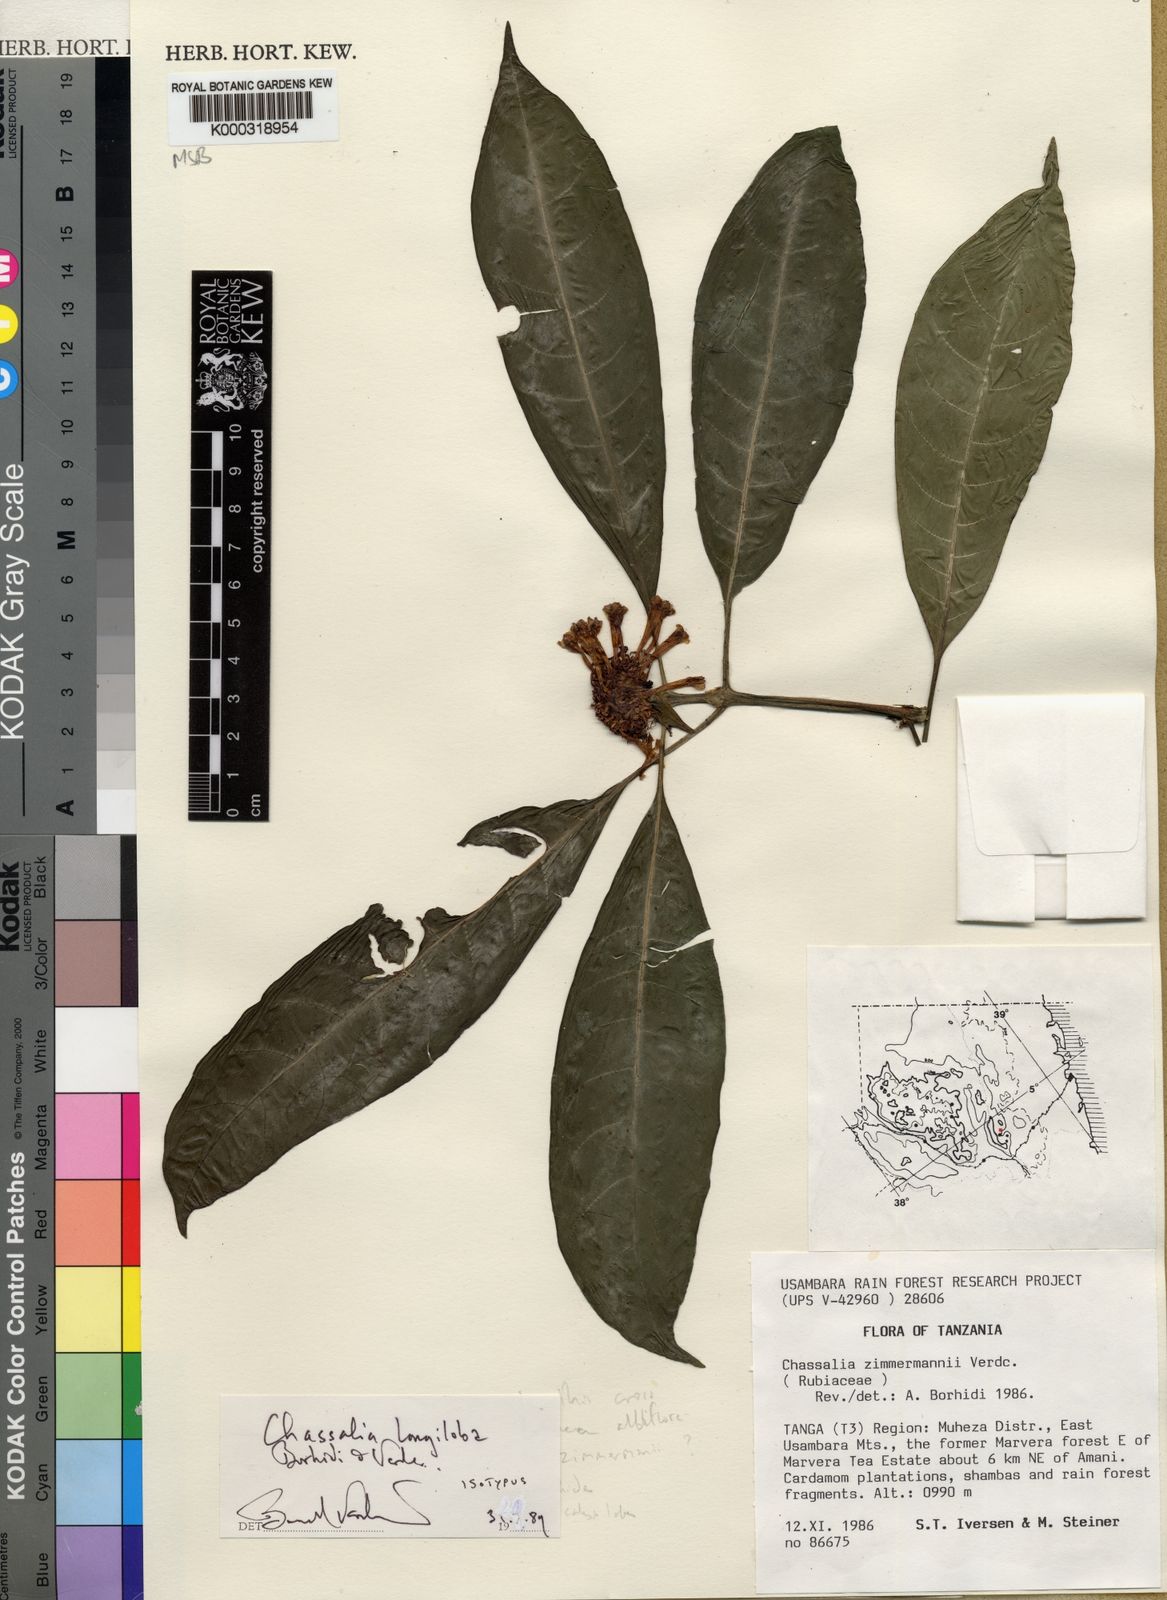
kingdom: Plantae
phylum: Tracheophyta
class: Magnoliopsida
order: Gentianales
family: Rubiaceae
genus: Chassalia
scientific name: Chassalia longiloba
